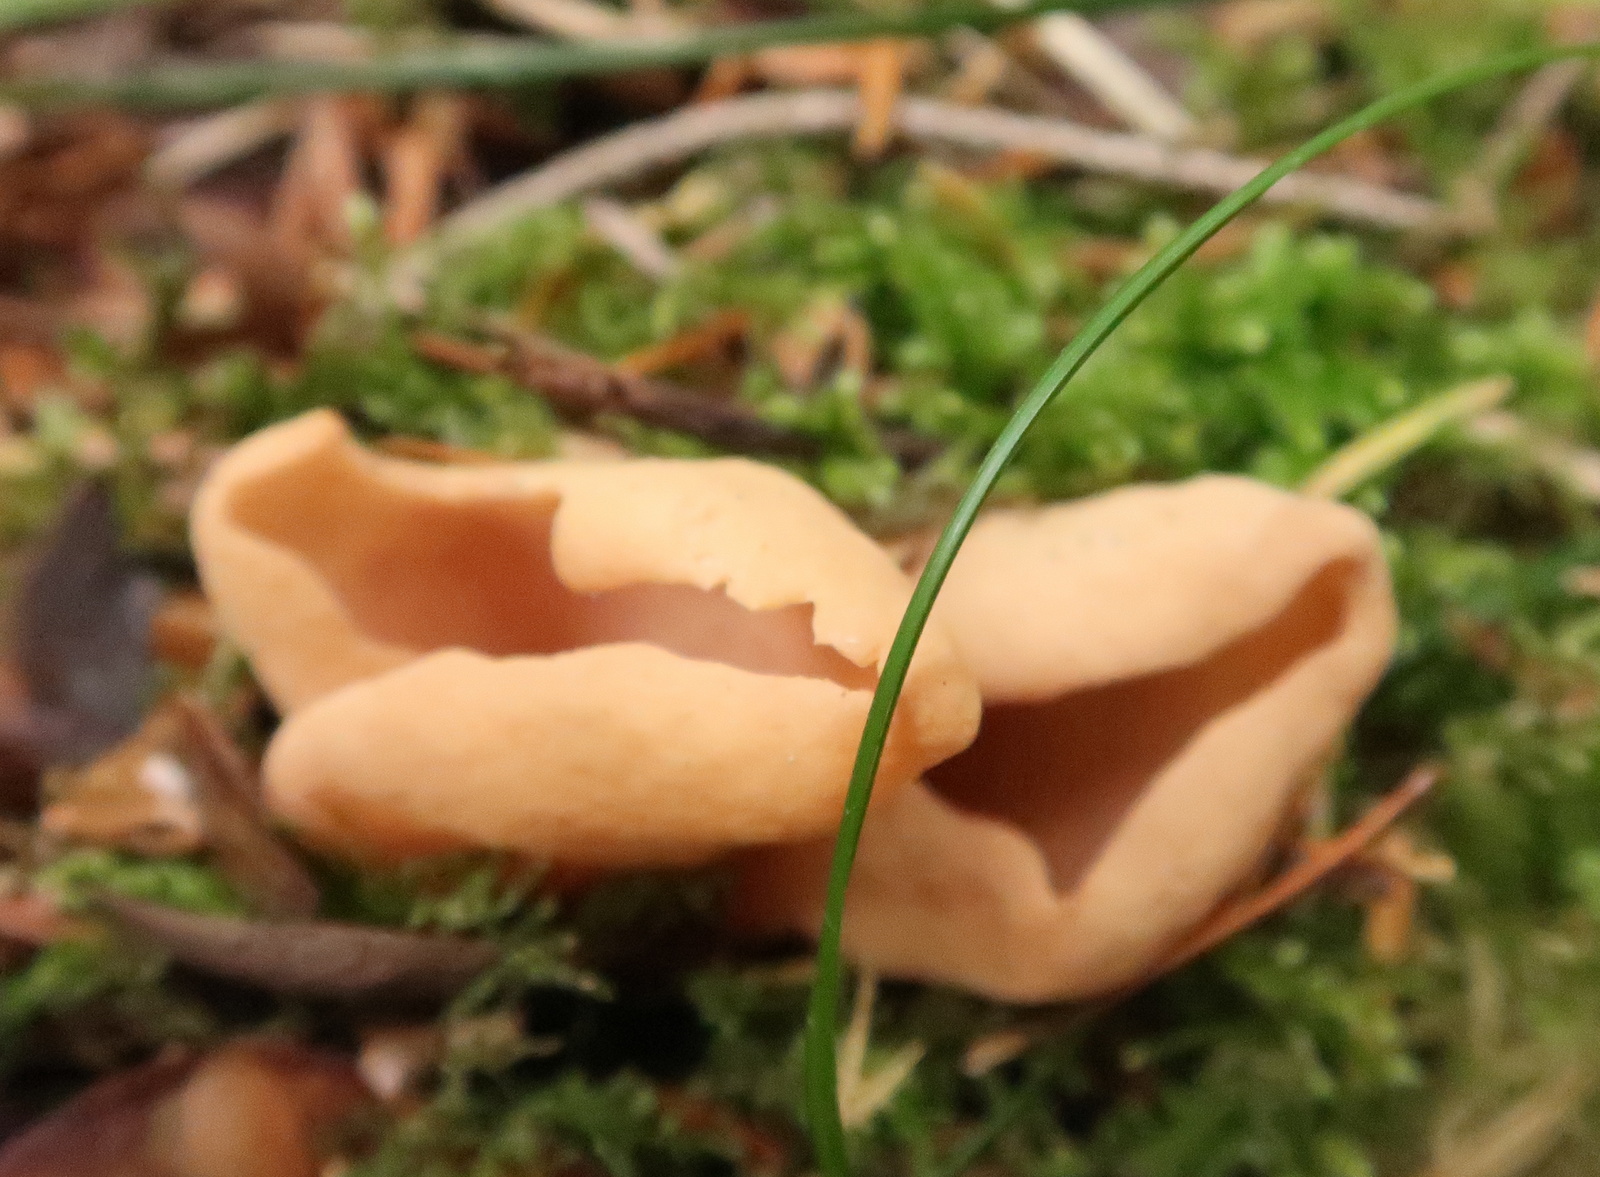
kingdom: Fungi
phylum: Ascomycota
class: Pezizomycetes
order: Pezizales
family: Otideaceae
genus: Otidea
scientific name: Otidea onotica
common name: æsel-ørebæger
